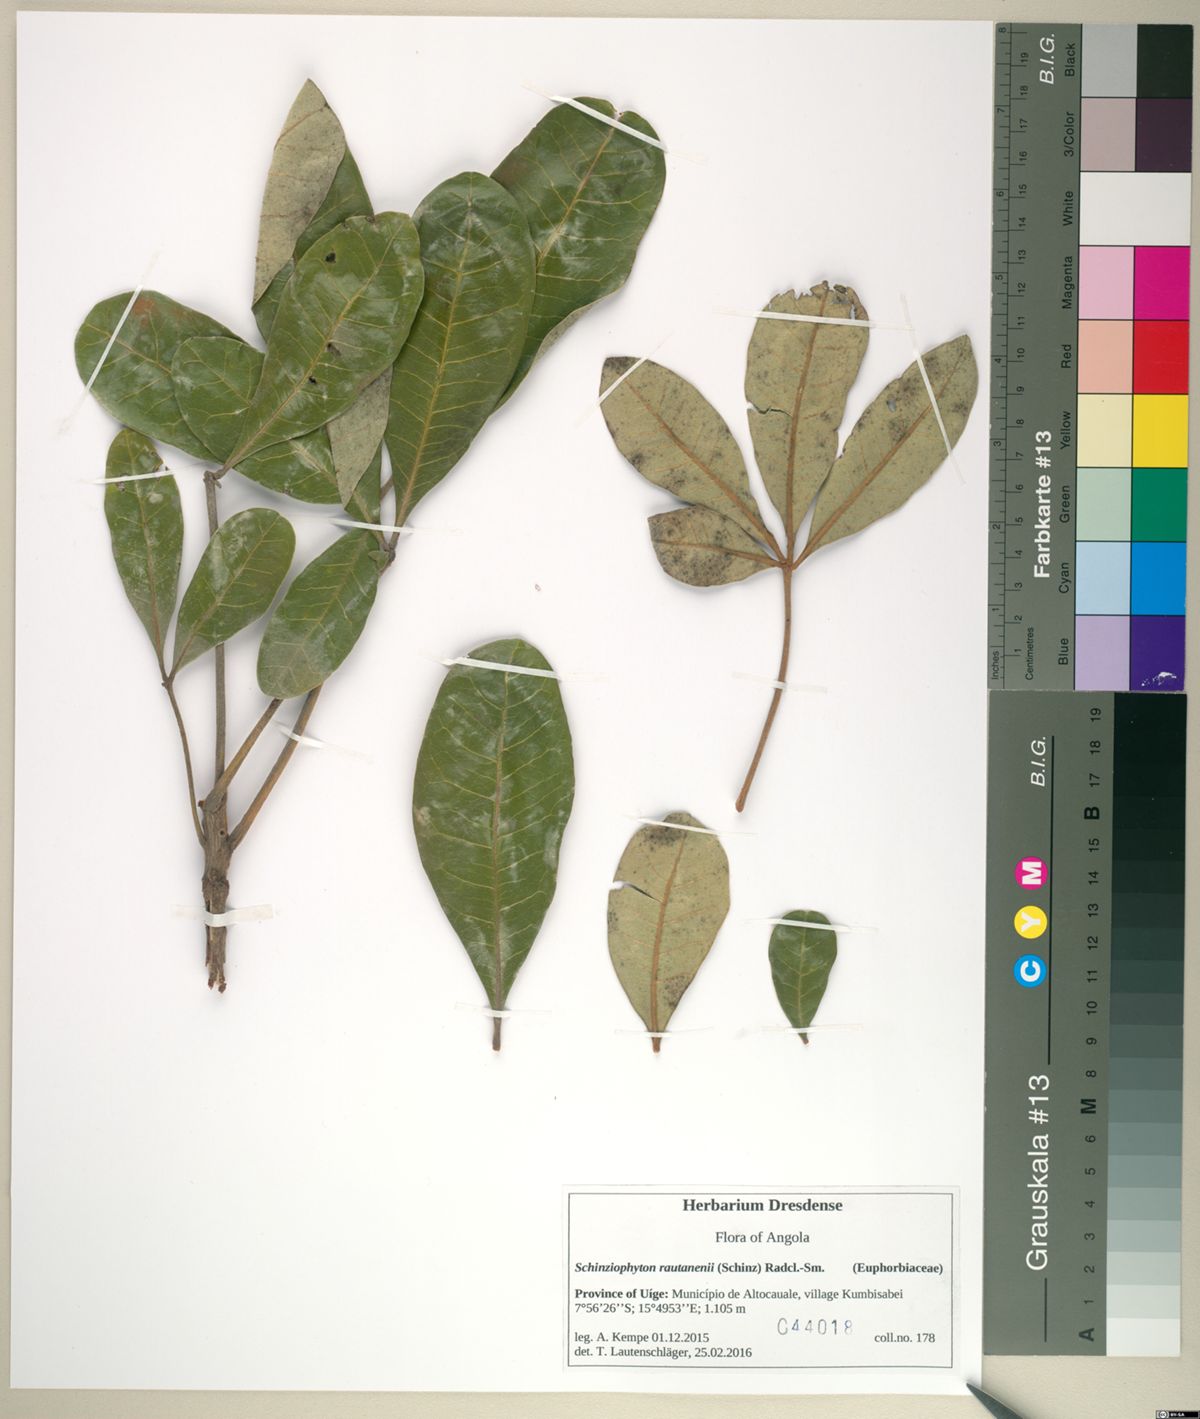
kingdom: Plantae
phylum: Tracheophyta
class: Magnoliopsida
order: Malpighiales
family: Picrodendraceae
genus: Oldfieldia
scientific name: Oldfieldia dactylophylla
